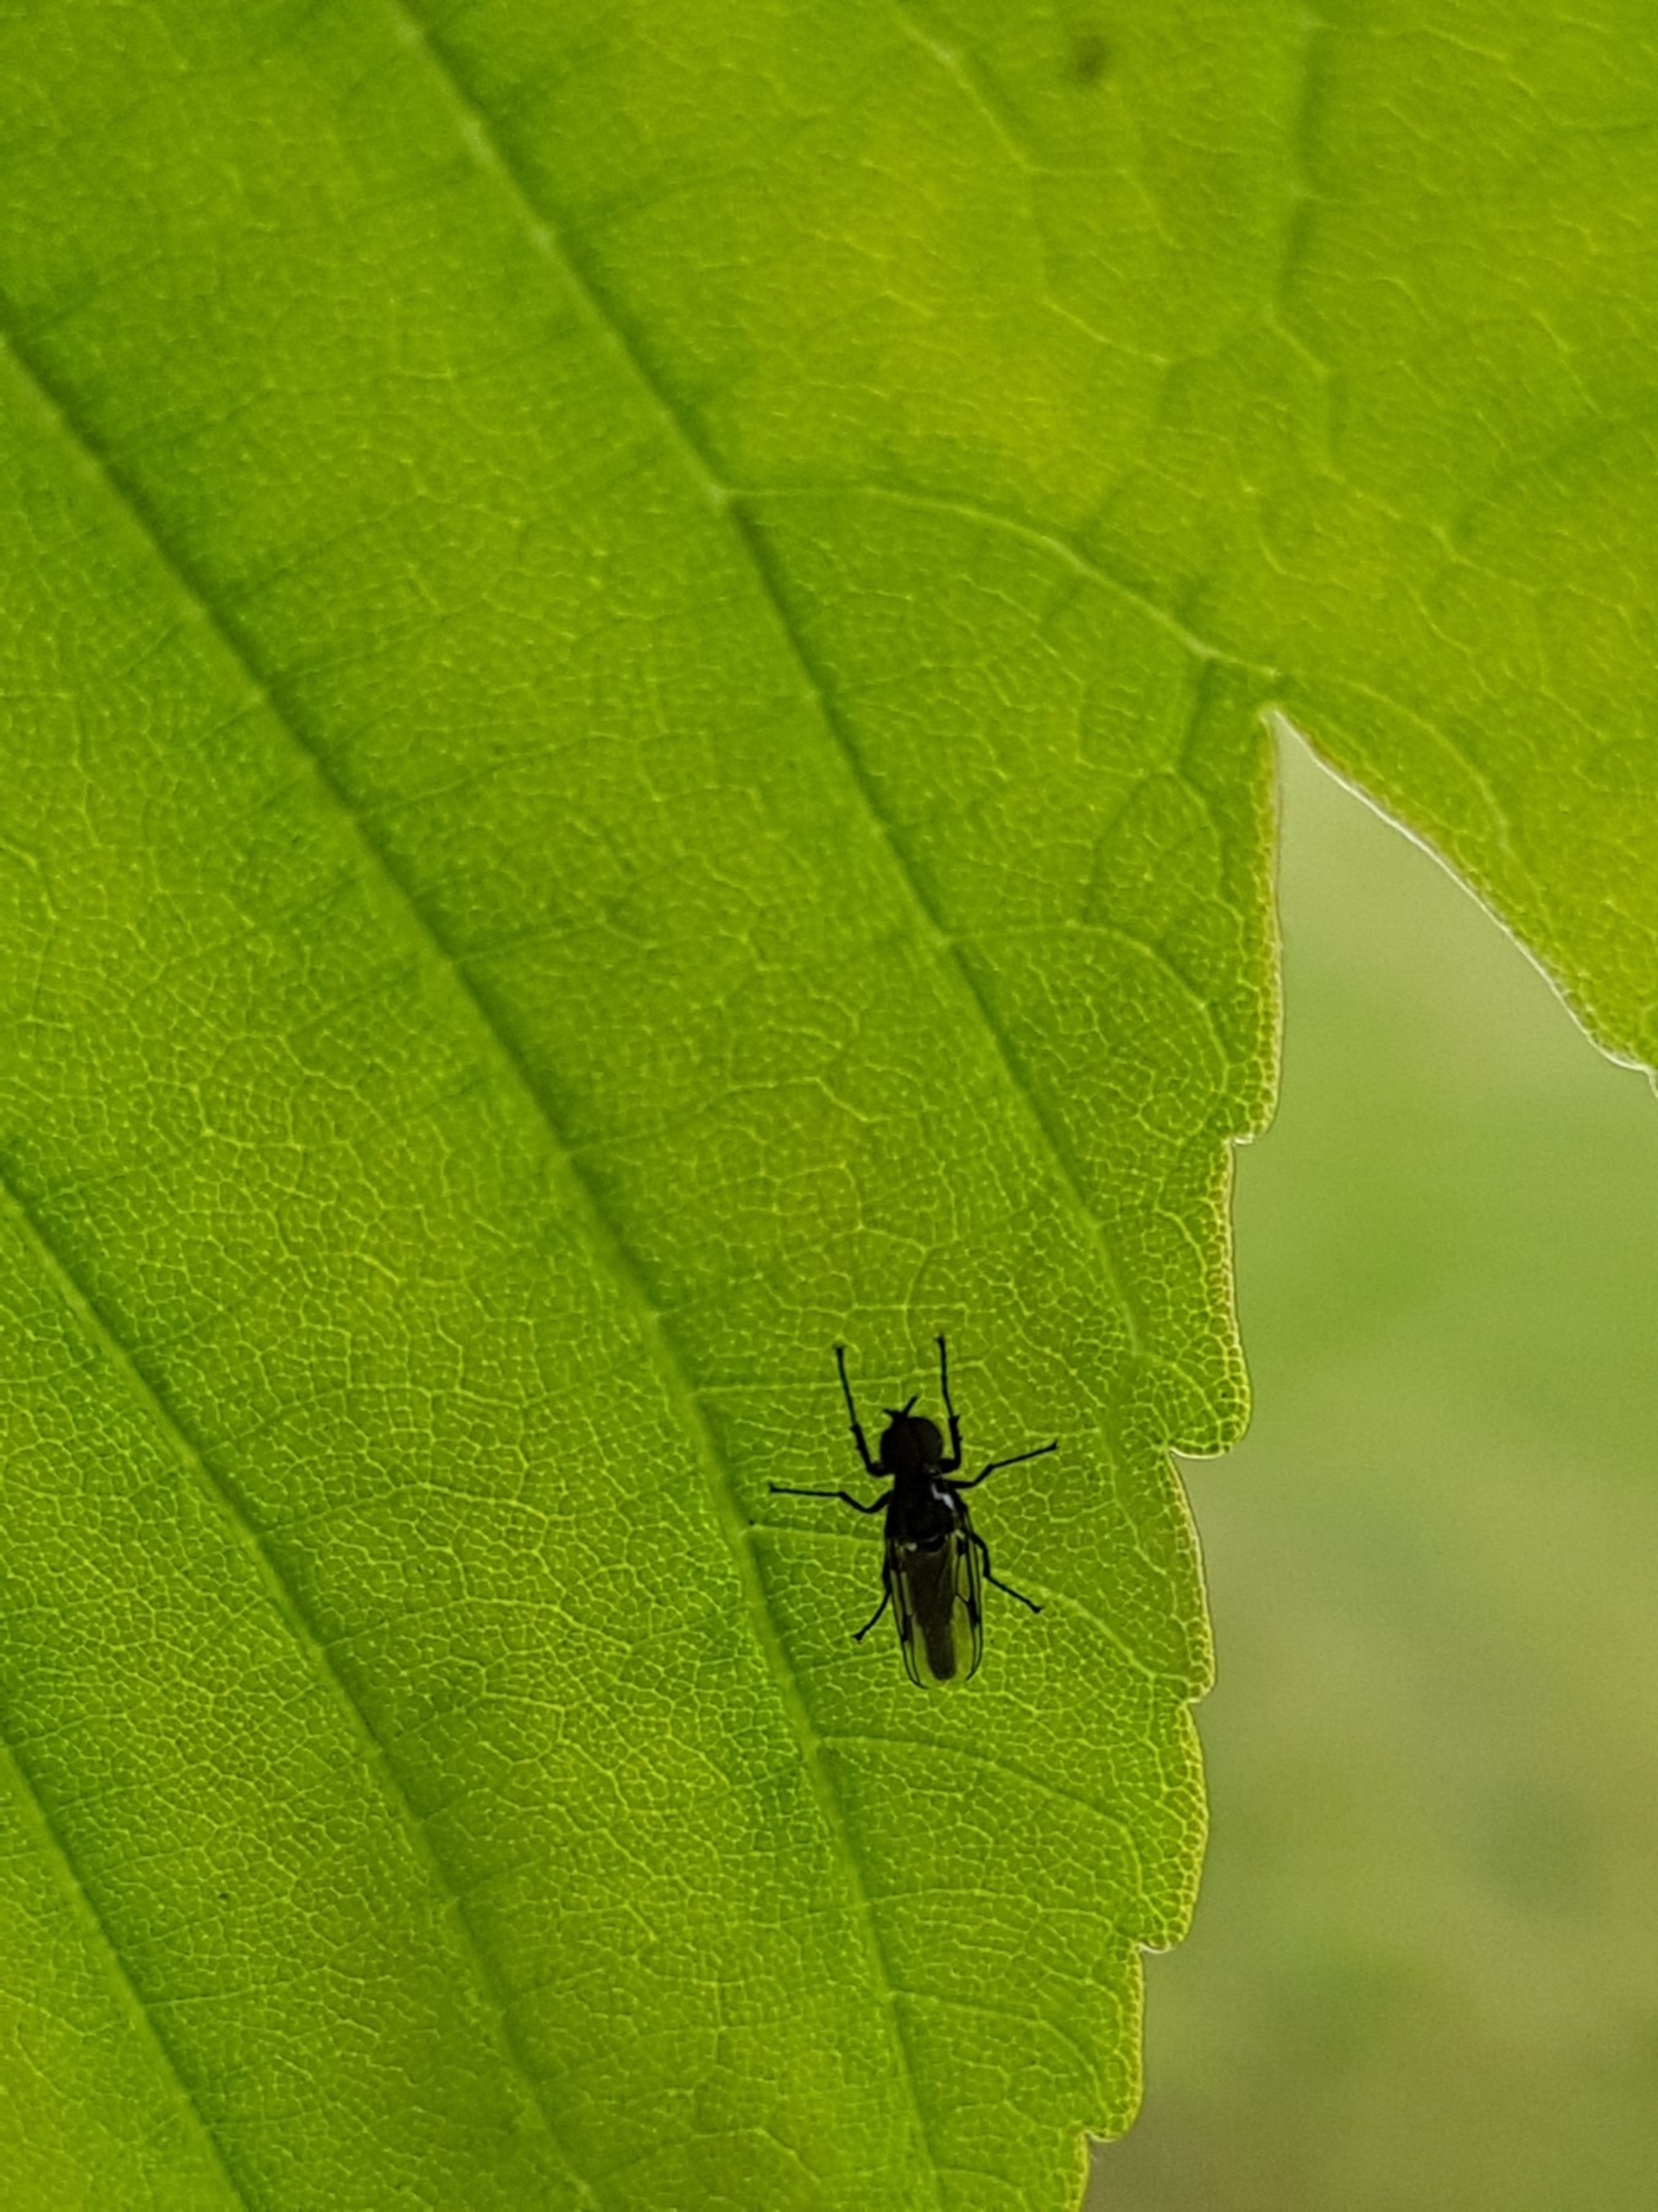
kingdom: Animalia
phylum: Arthropoda
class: Insecta
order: Diptera
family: Bibionidae
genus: Dilophus
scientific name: Dilophus
